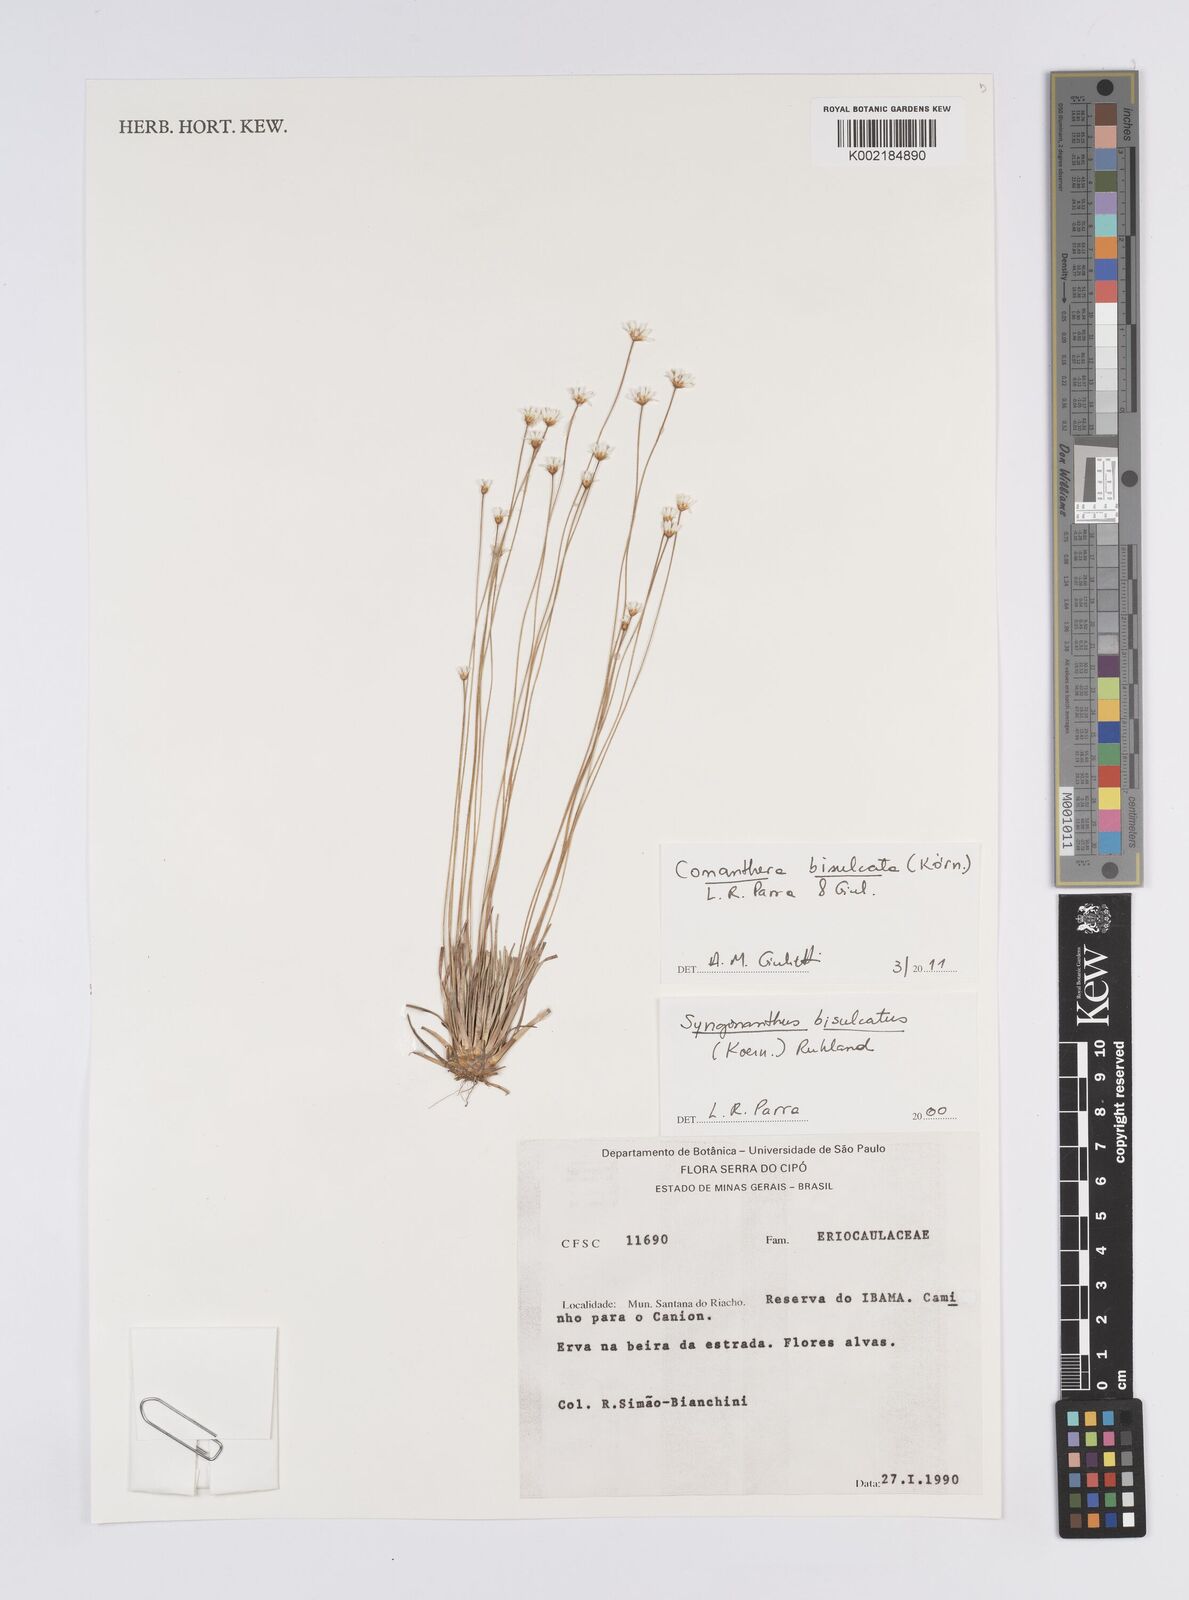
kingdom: Plantae
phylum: Tracheophyta
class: Liliopsida
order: Poales
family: Eriocaulaceae
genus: Comanthera
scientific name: Comanthera bisulcata
